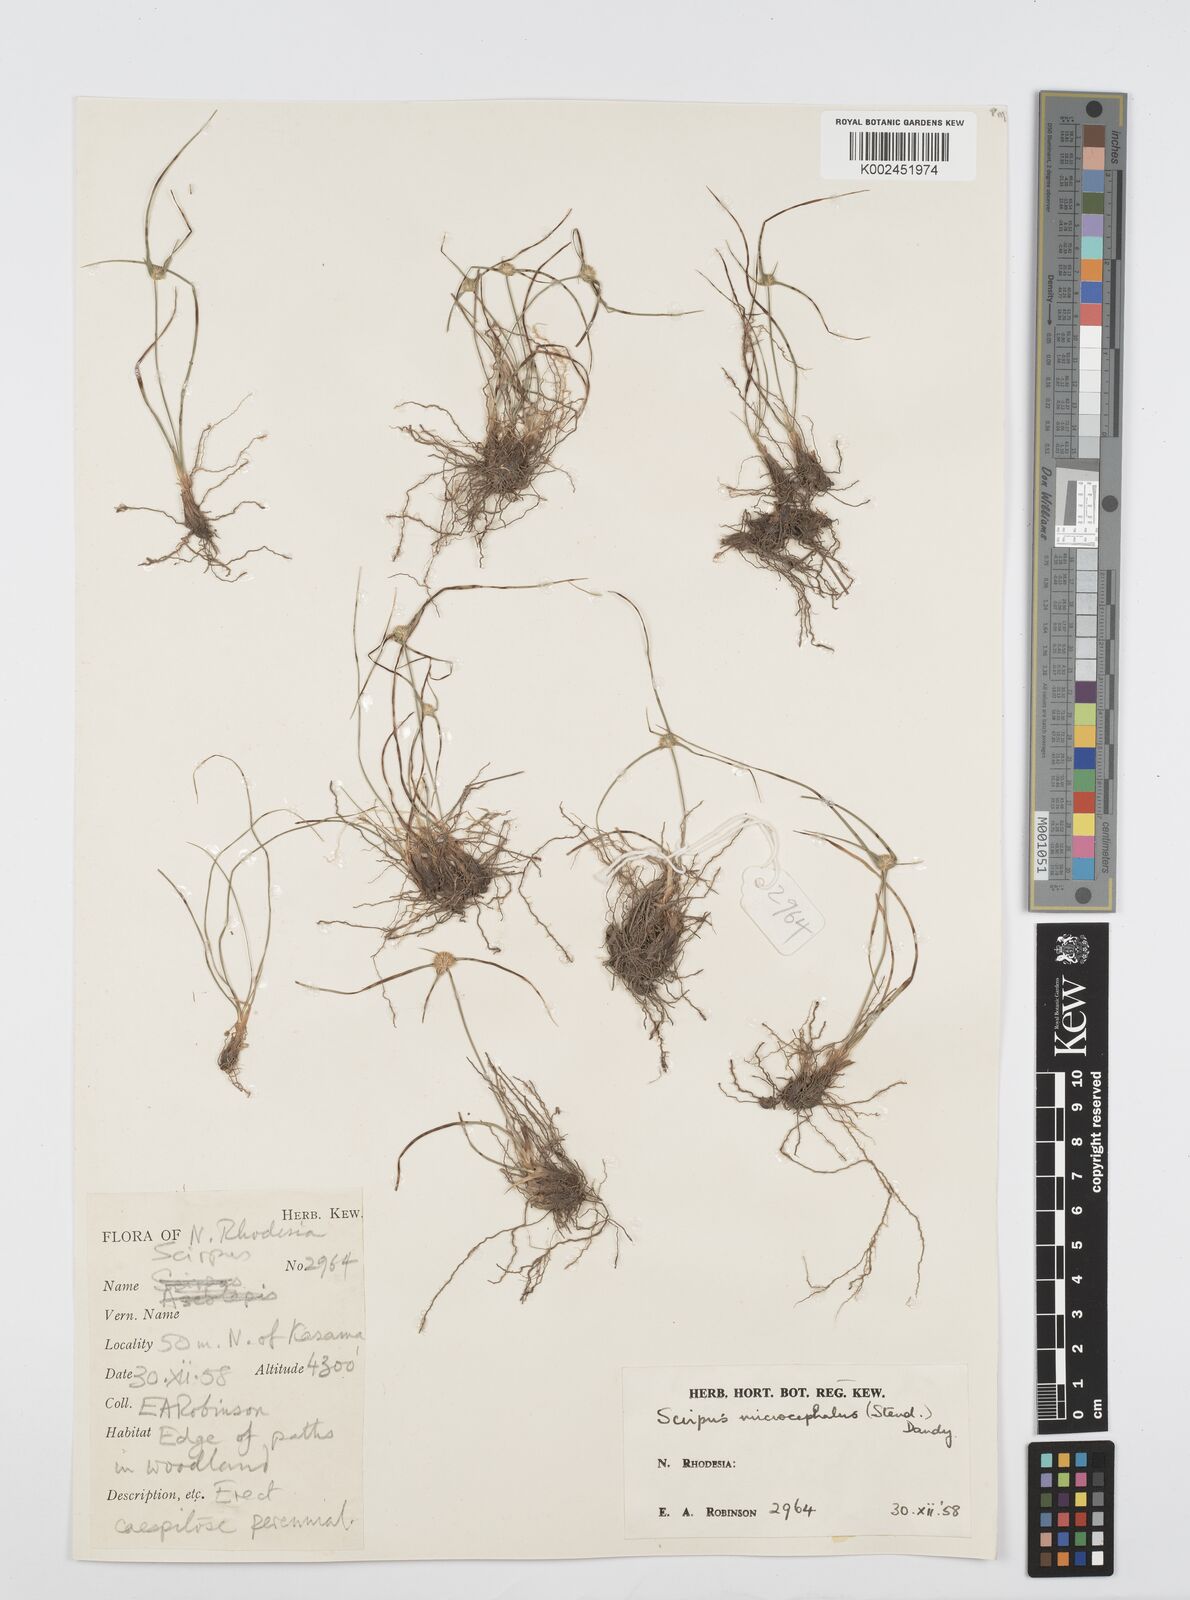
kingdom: Plantae
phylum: Tracheophyta
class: Liliopsida
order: Poales
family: Cyperaceae
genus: Cyperus
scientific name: Cyperus microcephalus
